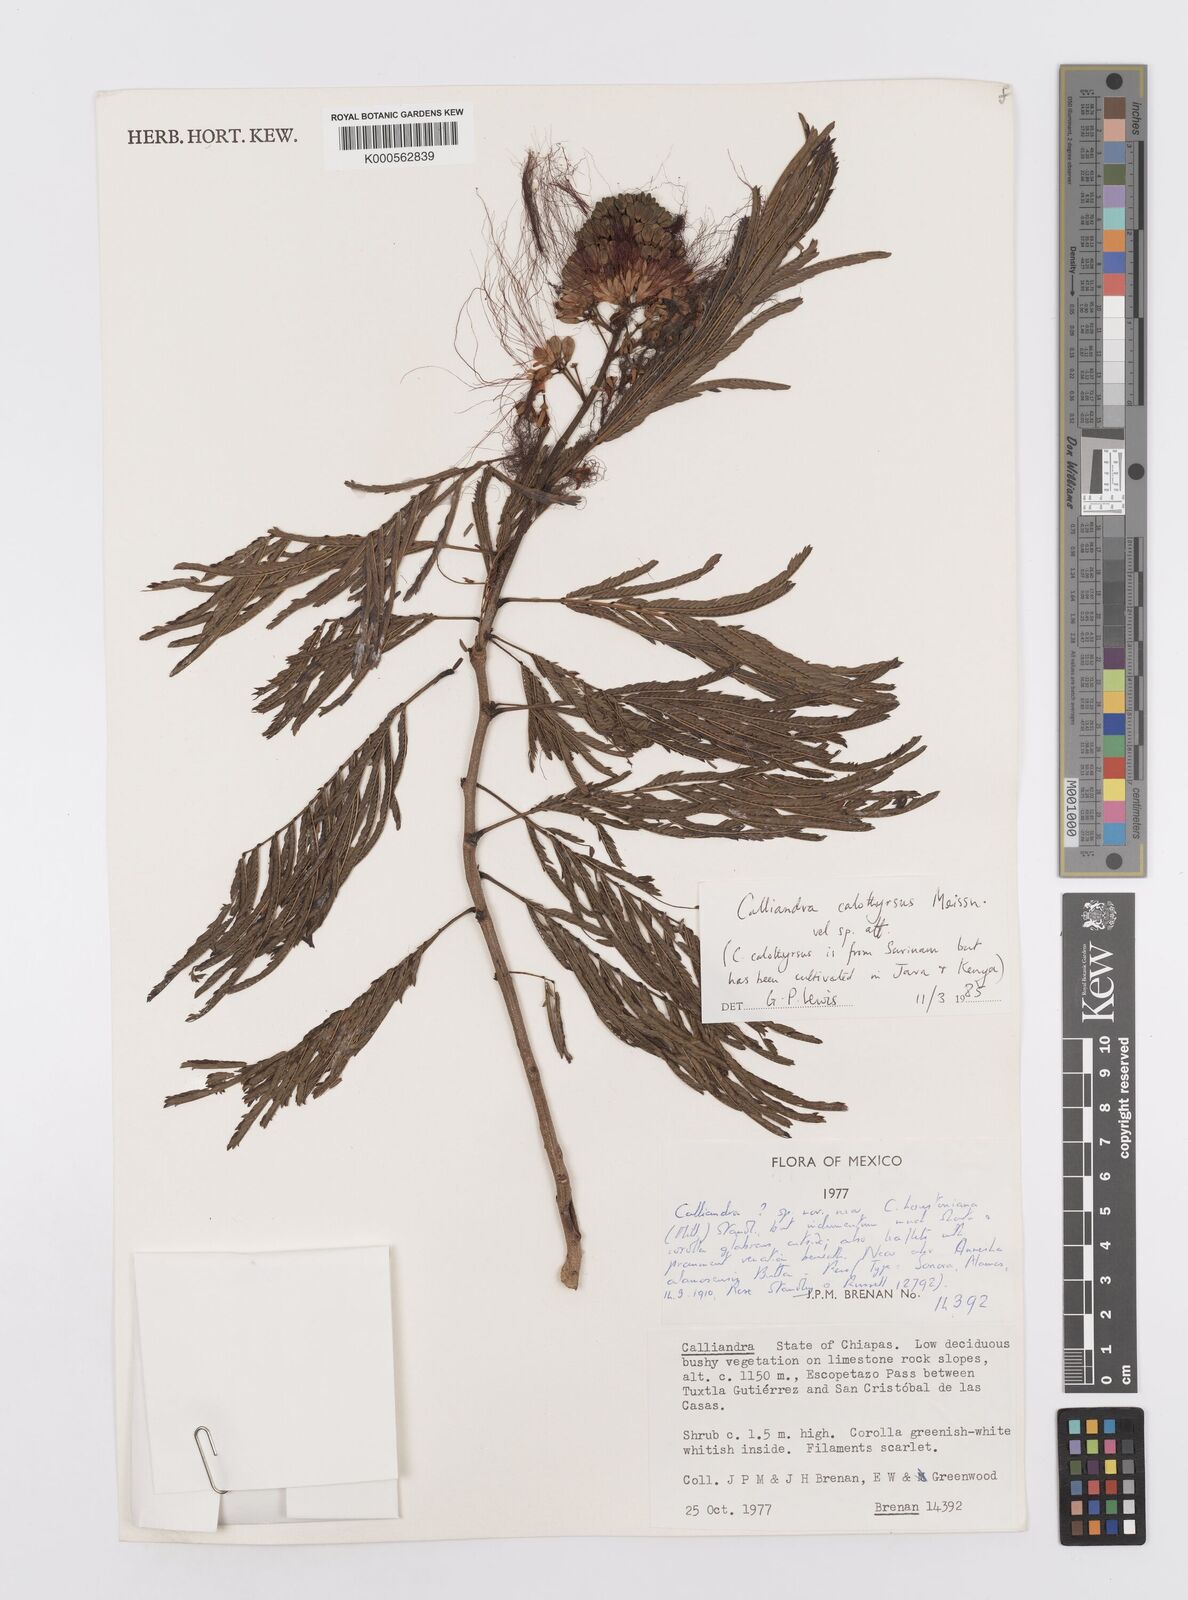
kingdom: Plantae
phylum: Tracheophyta
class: Magnoliopsida
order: Fabales
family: Fabaceae
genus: Calliandra
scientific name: Calliandra houstoniana
